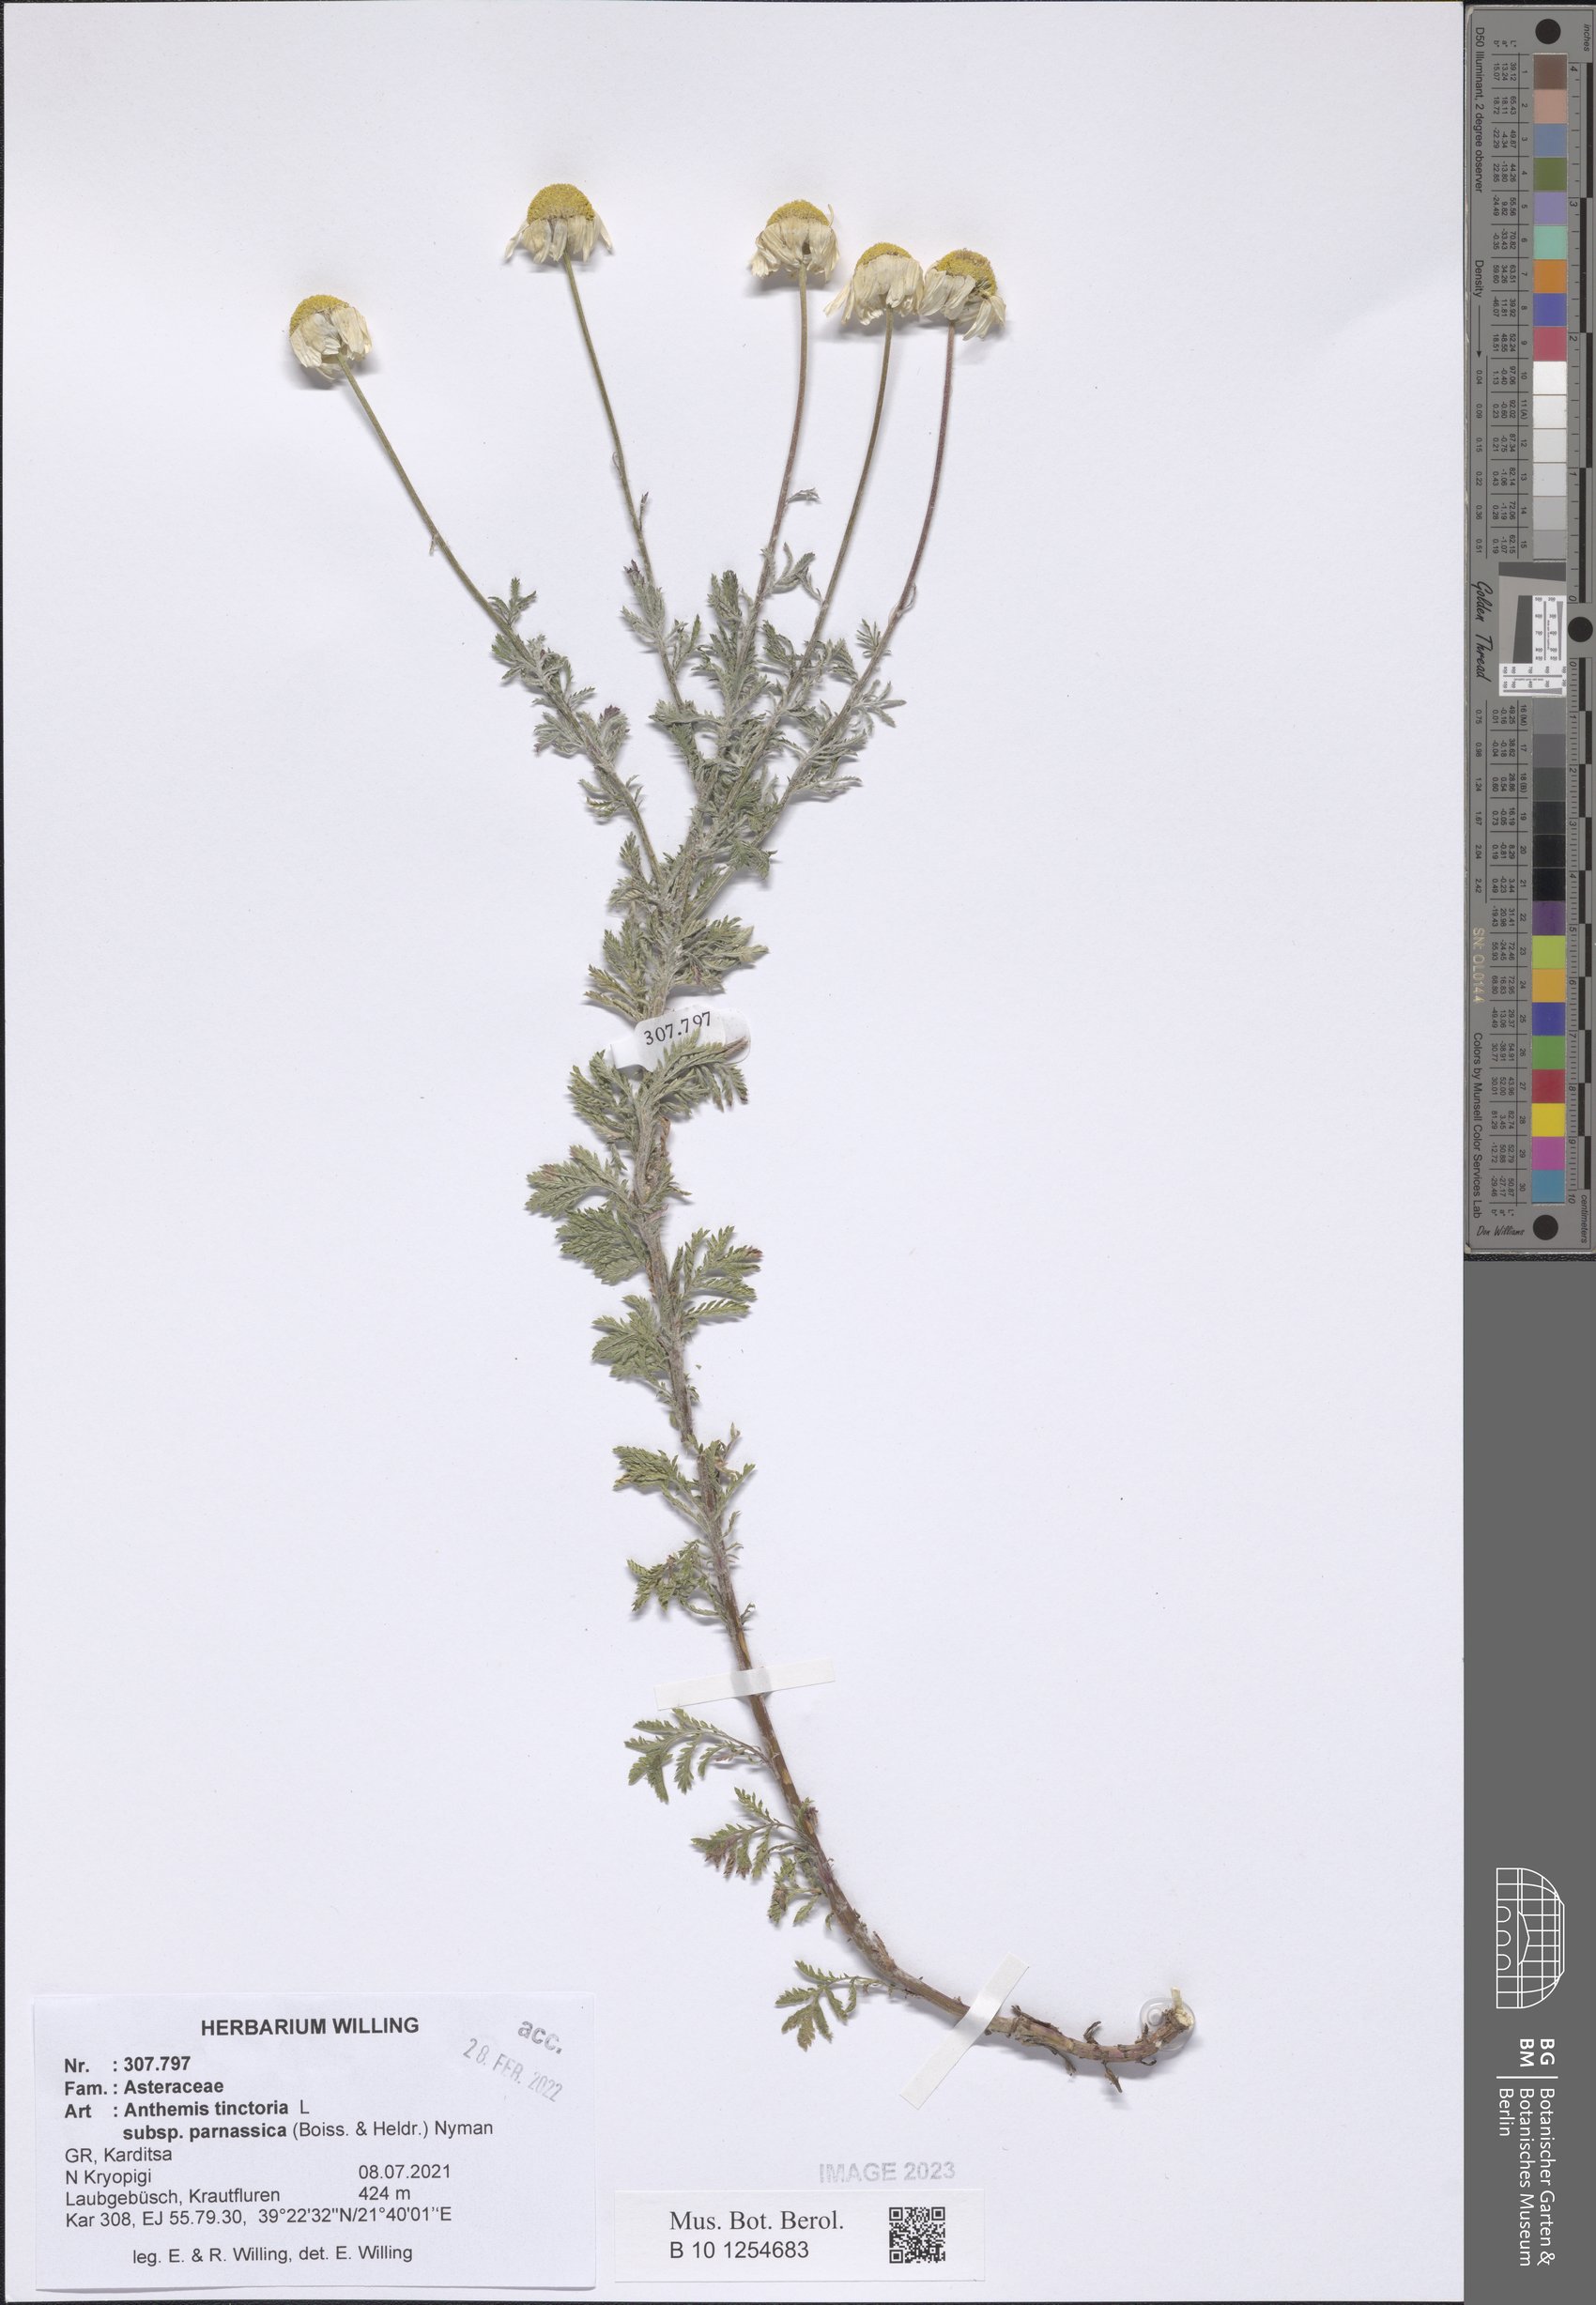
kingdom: Plantae
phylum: Tracheophyta
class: Magnoliopsida
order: Asterales
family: Asteraceae
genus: Cota
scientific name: Cota tinctoria
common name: Golden chamomile
